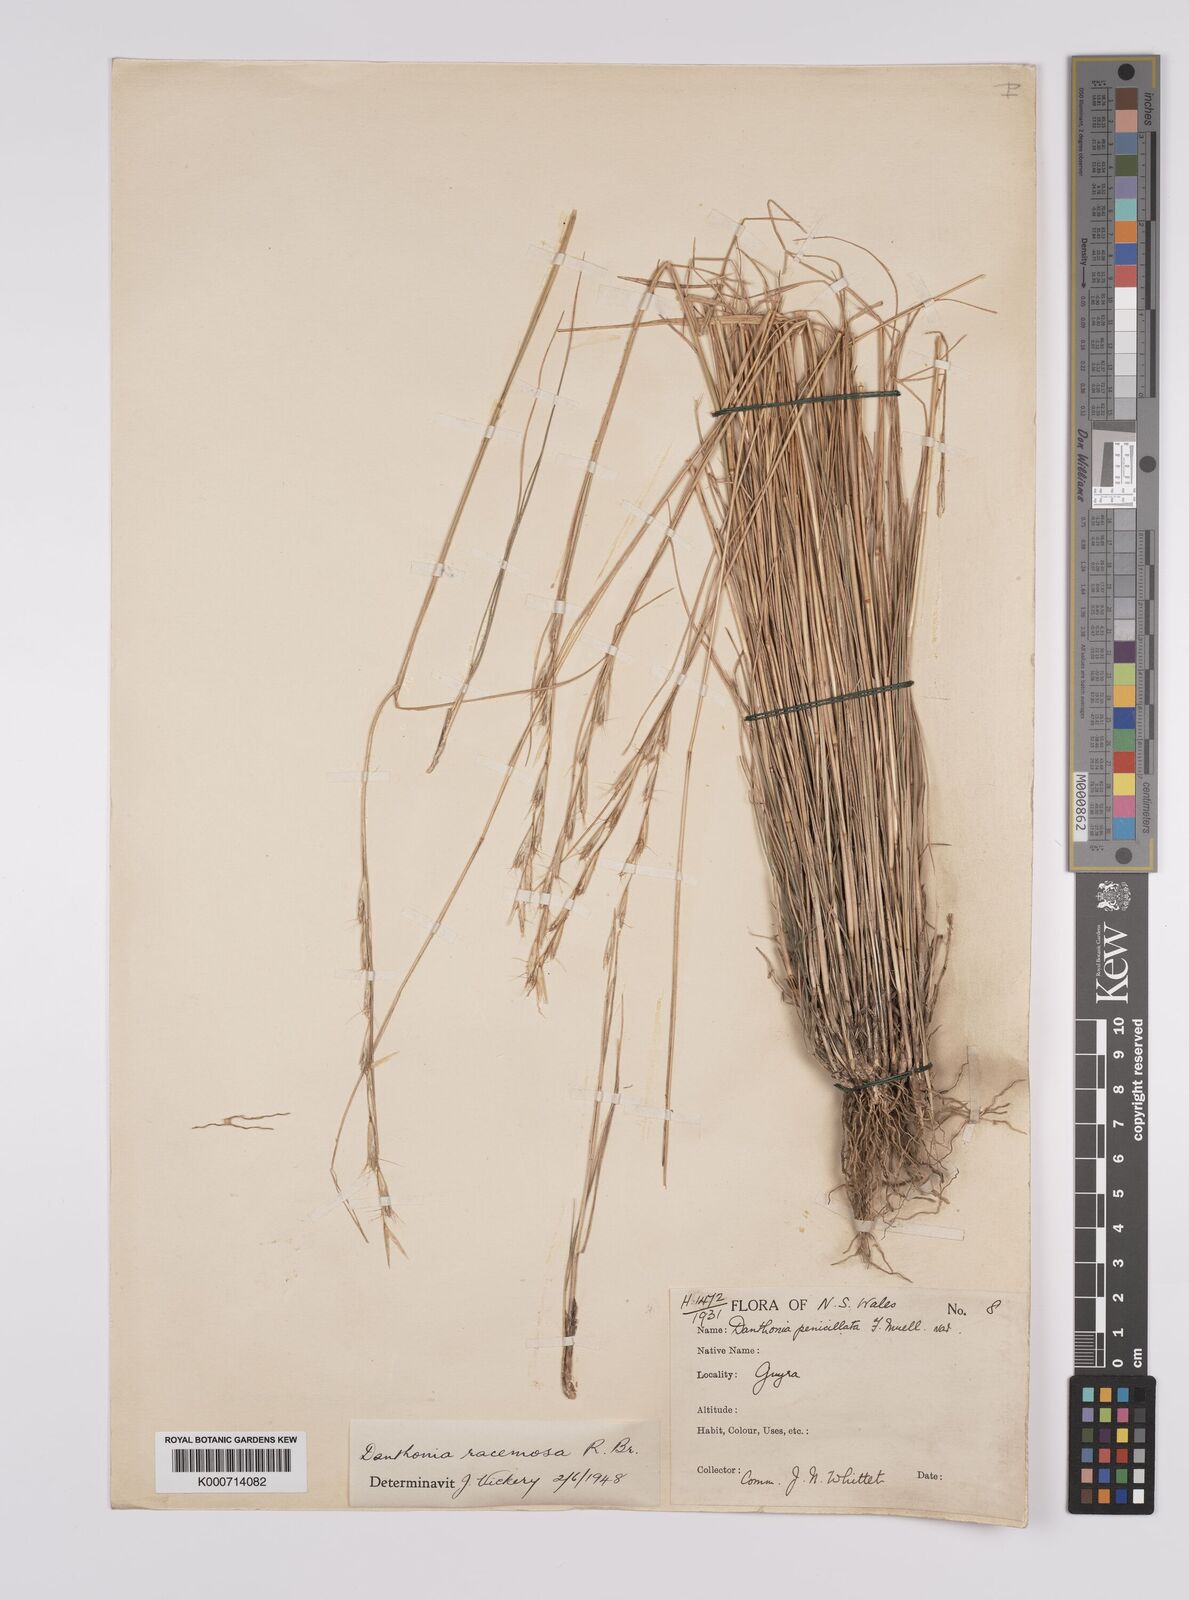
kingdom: Plantae
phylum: Tracheophyta
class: Liliopsida
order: Poales
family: Poaceae
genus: Rytidosperma
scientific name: Rytidosperma racemosum
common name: Wallaby-grass
